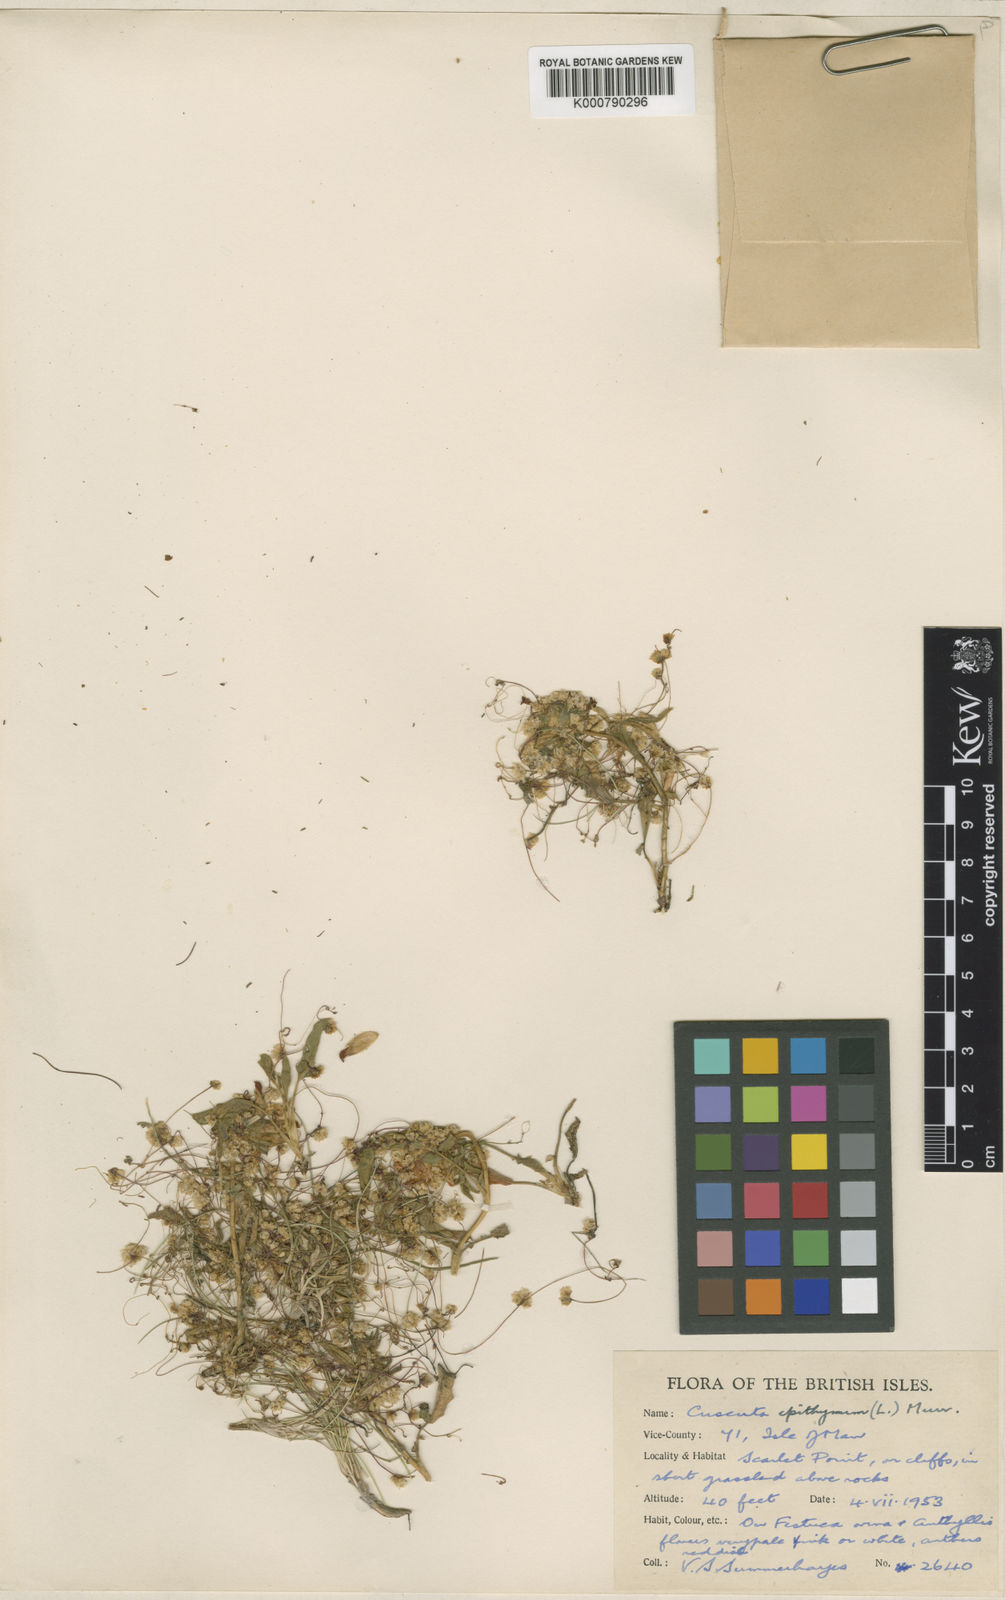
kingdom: Plantae
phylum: Tracheophyta
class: Magnoliopsida
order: Solanales
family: Convolvulaceae
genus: Cuscuta
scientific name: Cuscuta epithymum
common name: Clover dodder
